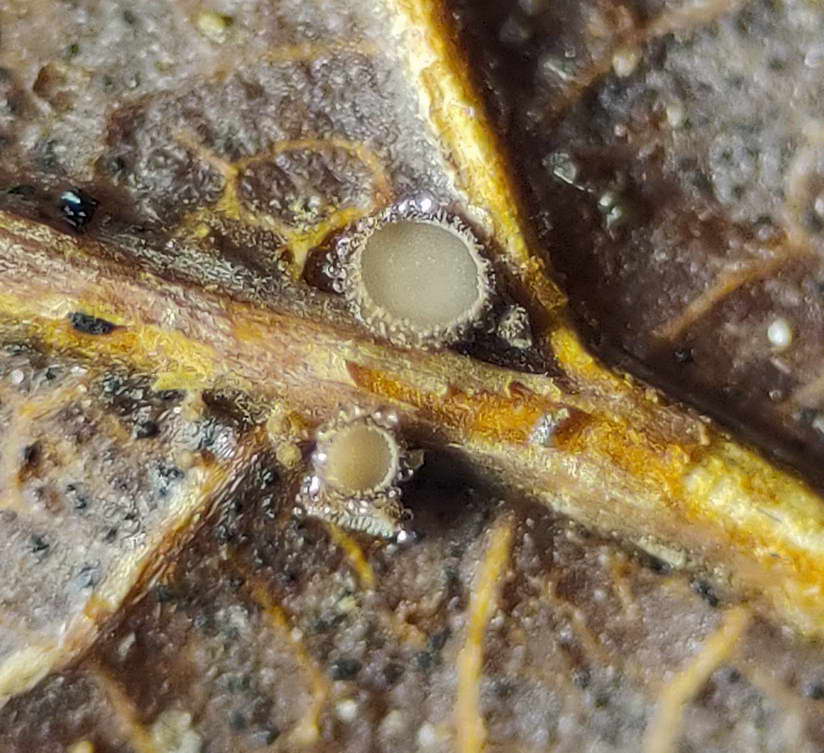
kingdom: Fungi
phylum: Ascomycota
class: Leotiomycetes
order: Helotiales
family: Lachnaceae
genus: Brunnipila
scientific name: Brunnipila brunneola
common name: læderbrun frynseskive
